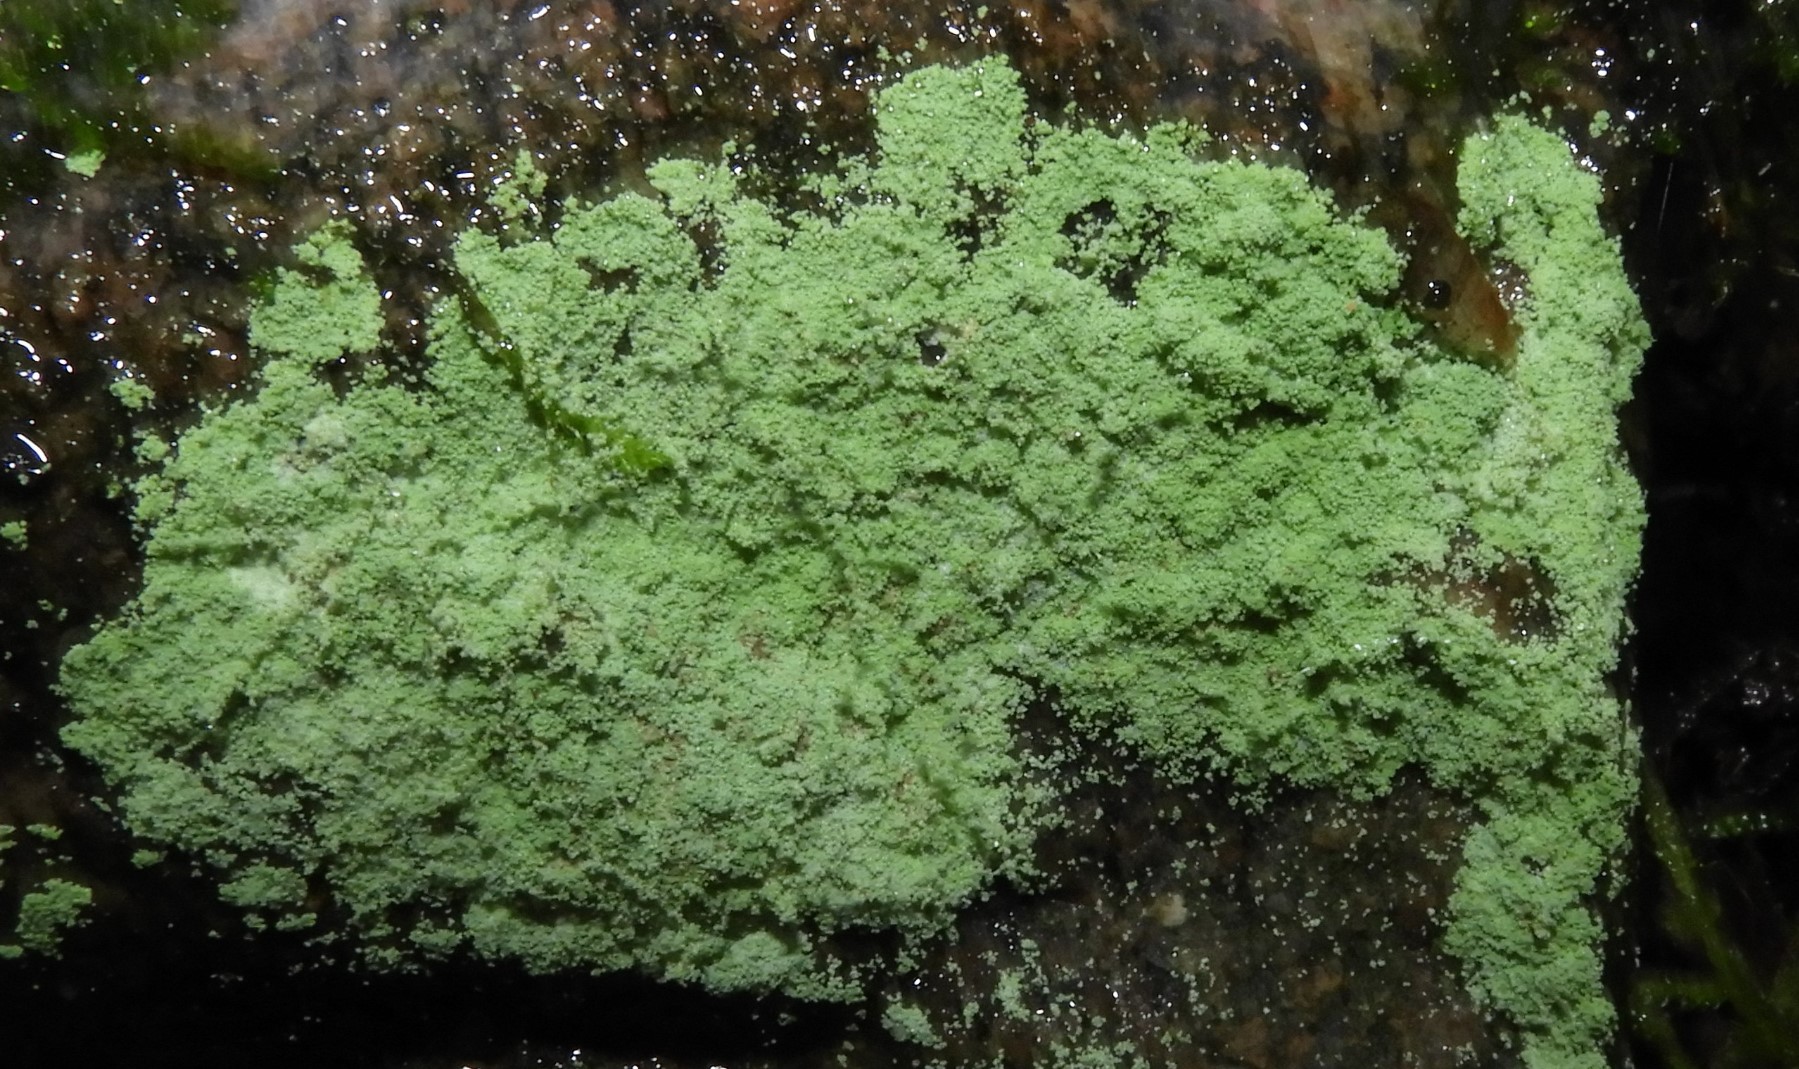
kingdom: Fungi
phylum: Ascomycota
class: Lecanoromycetes
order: Lecanorales
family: Stereocaulaceae
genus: Lepraria
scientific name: Lepraria
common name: støvlav
